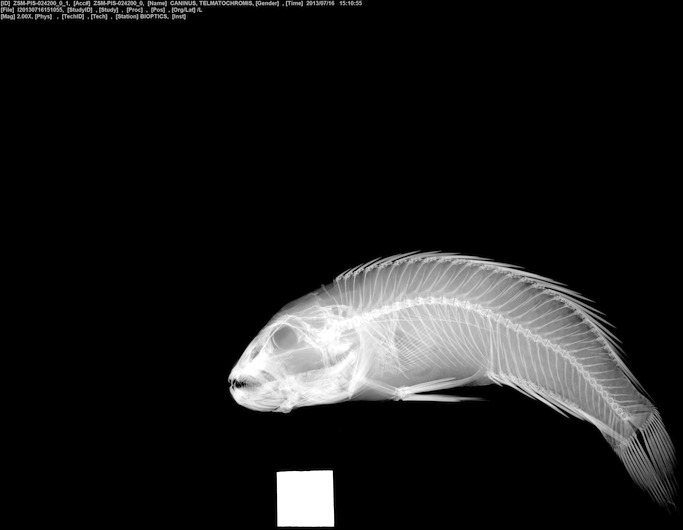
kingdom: Animalia
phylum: Chordata
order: Perciformes
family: Cichlidae
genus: Telmatochromis
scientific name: Telmatochromis dhonti
